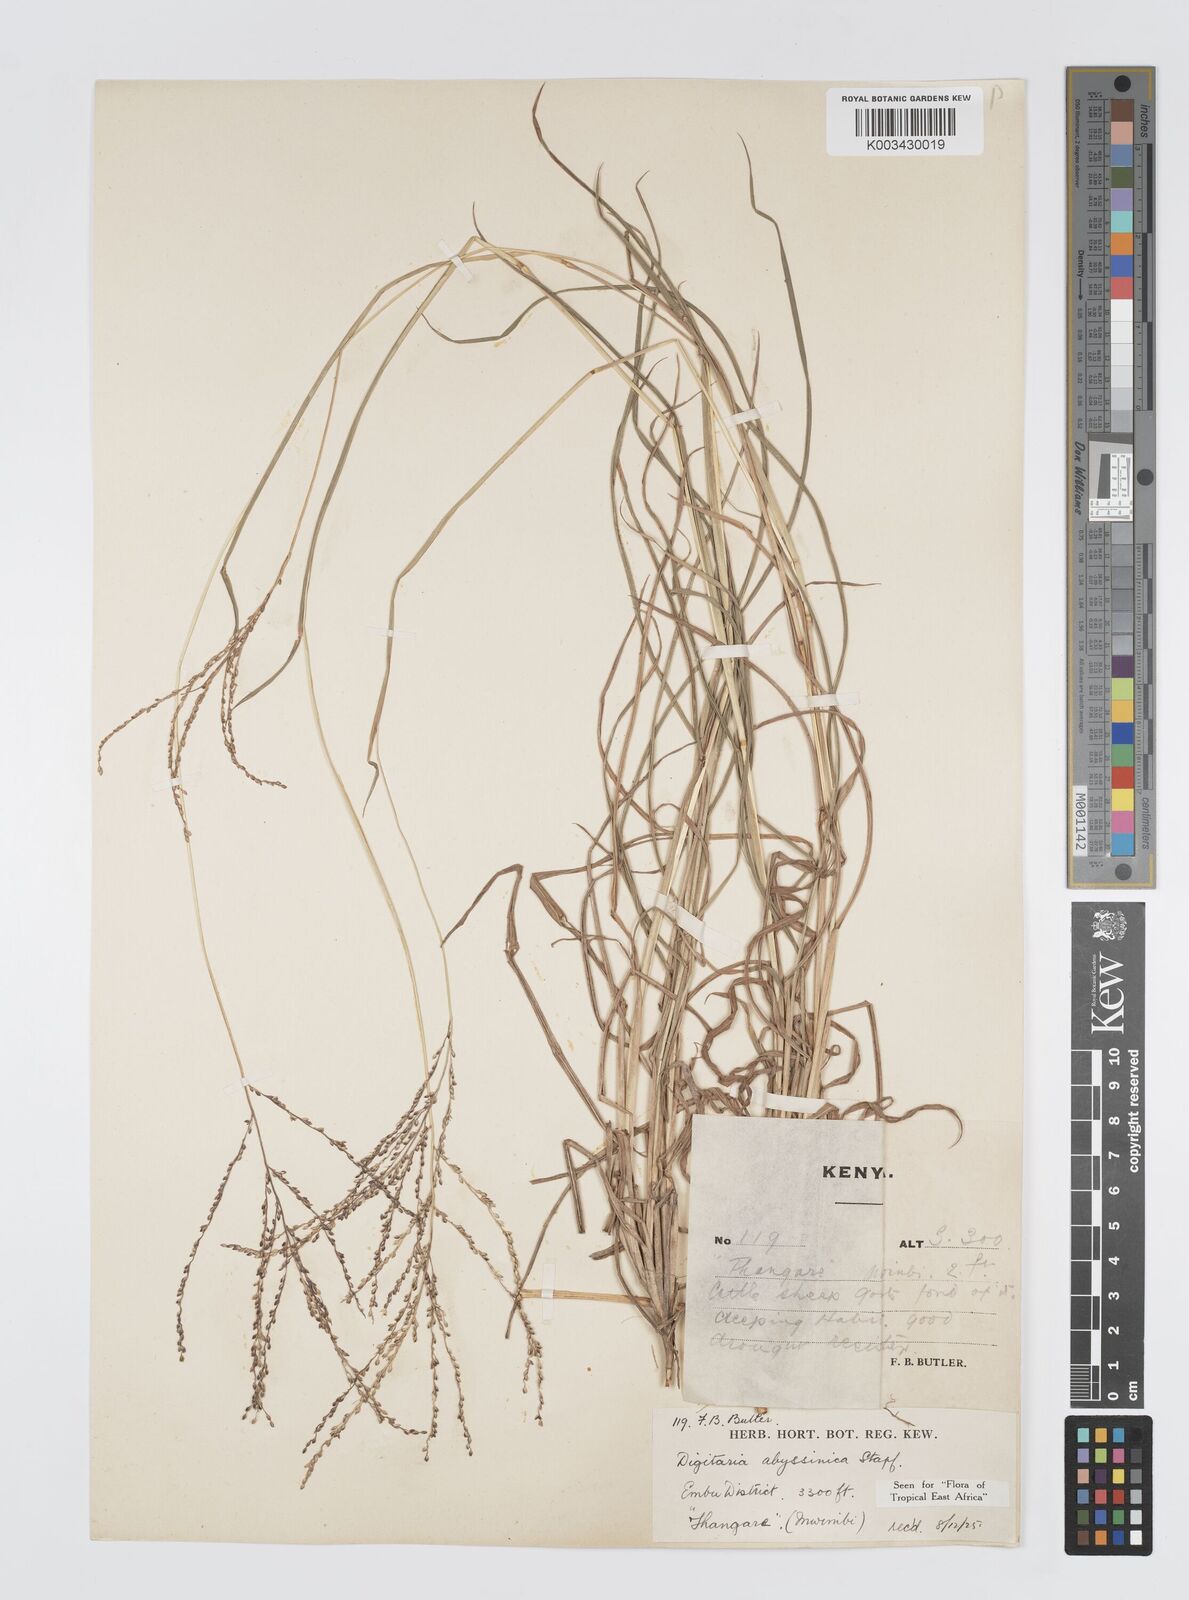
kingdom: Plantae
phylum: Tracheophyta
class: Liliopsida
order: Poales
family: Poaceae
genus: Digitaria
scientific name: Digitaria abyssinica
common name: African couchgrass
